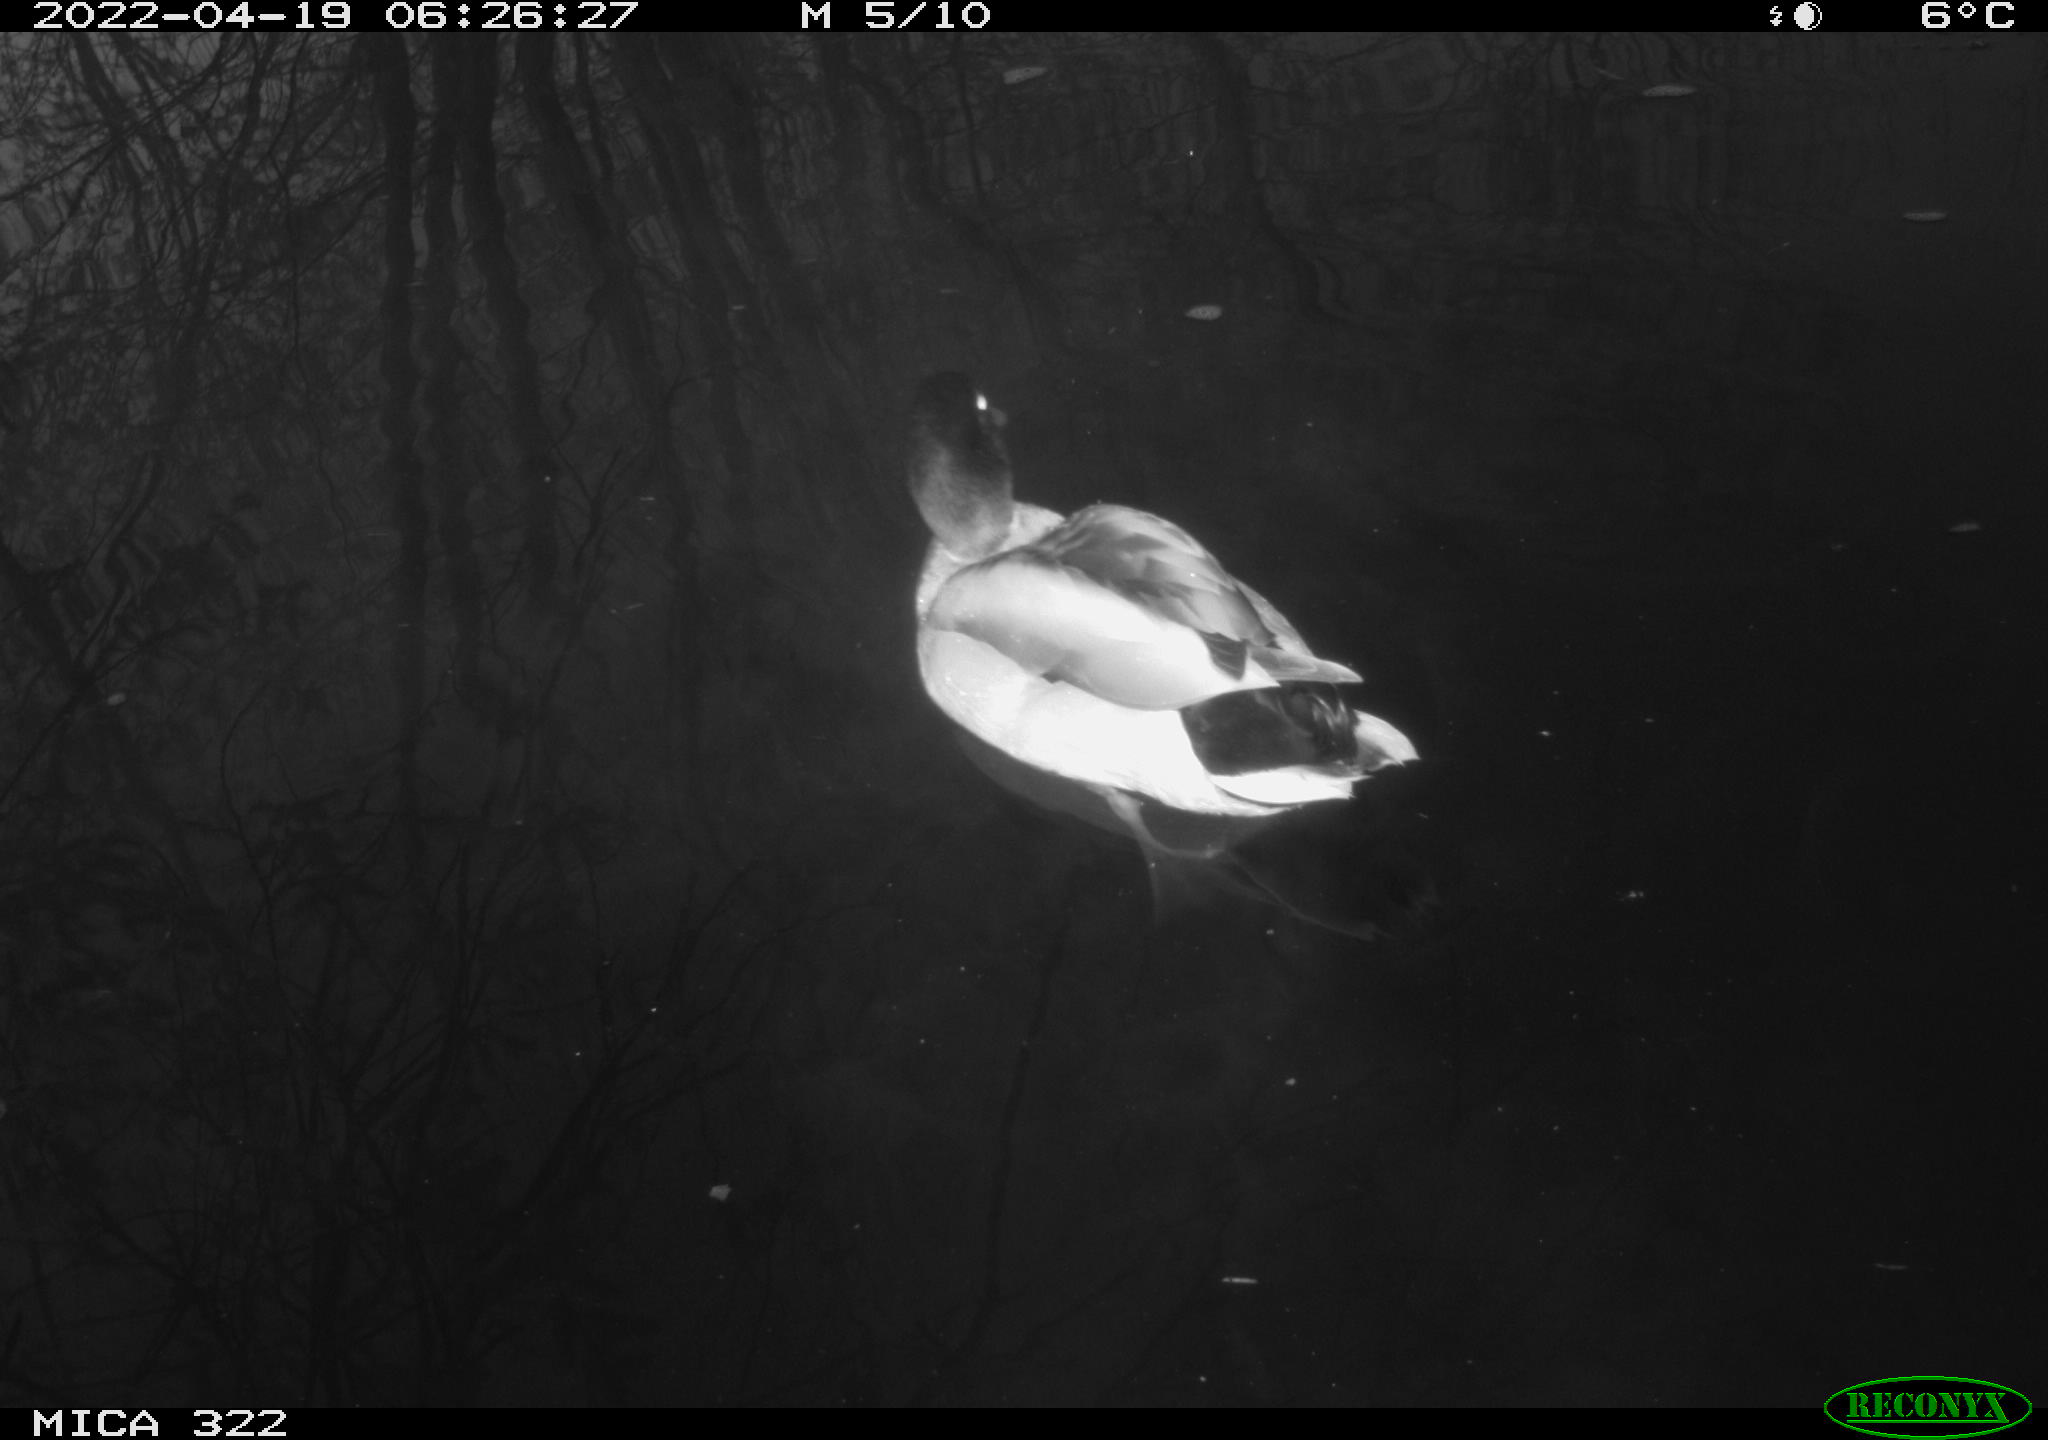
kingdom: Animalia
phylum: Chordata
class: Aves
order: Anseriformes
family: Anatidae
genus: Anas
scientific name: Anas platyrhynchos
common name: Mallard
